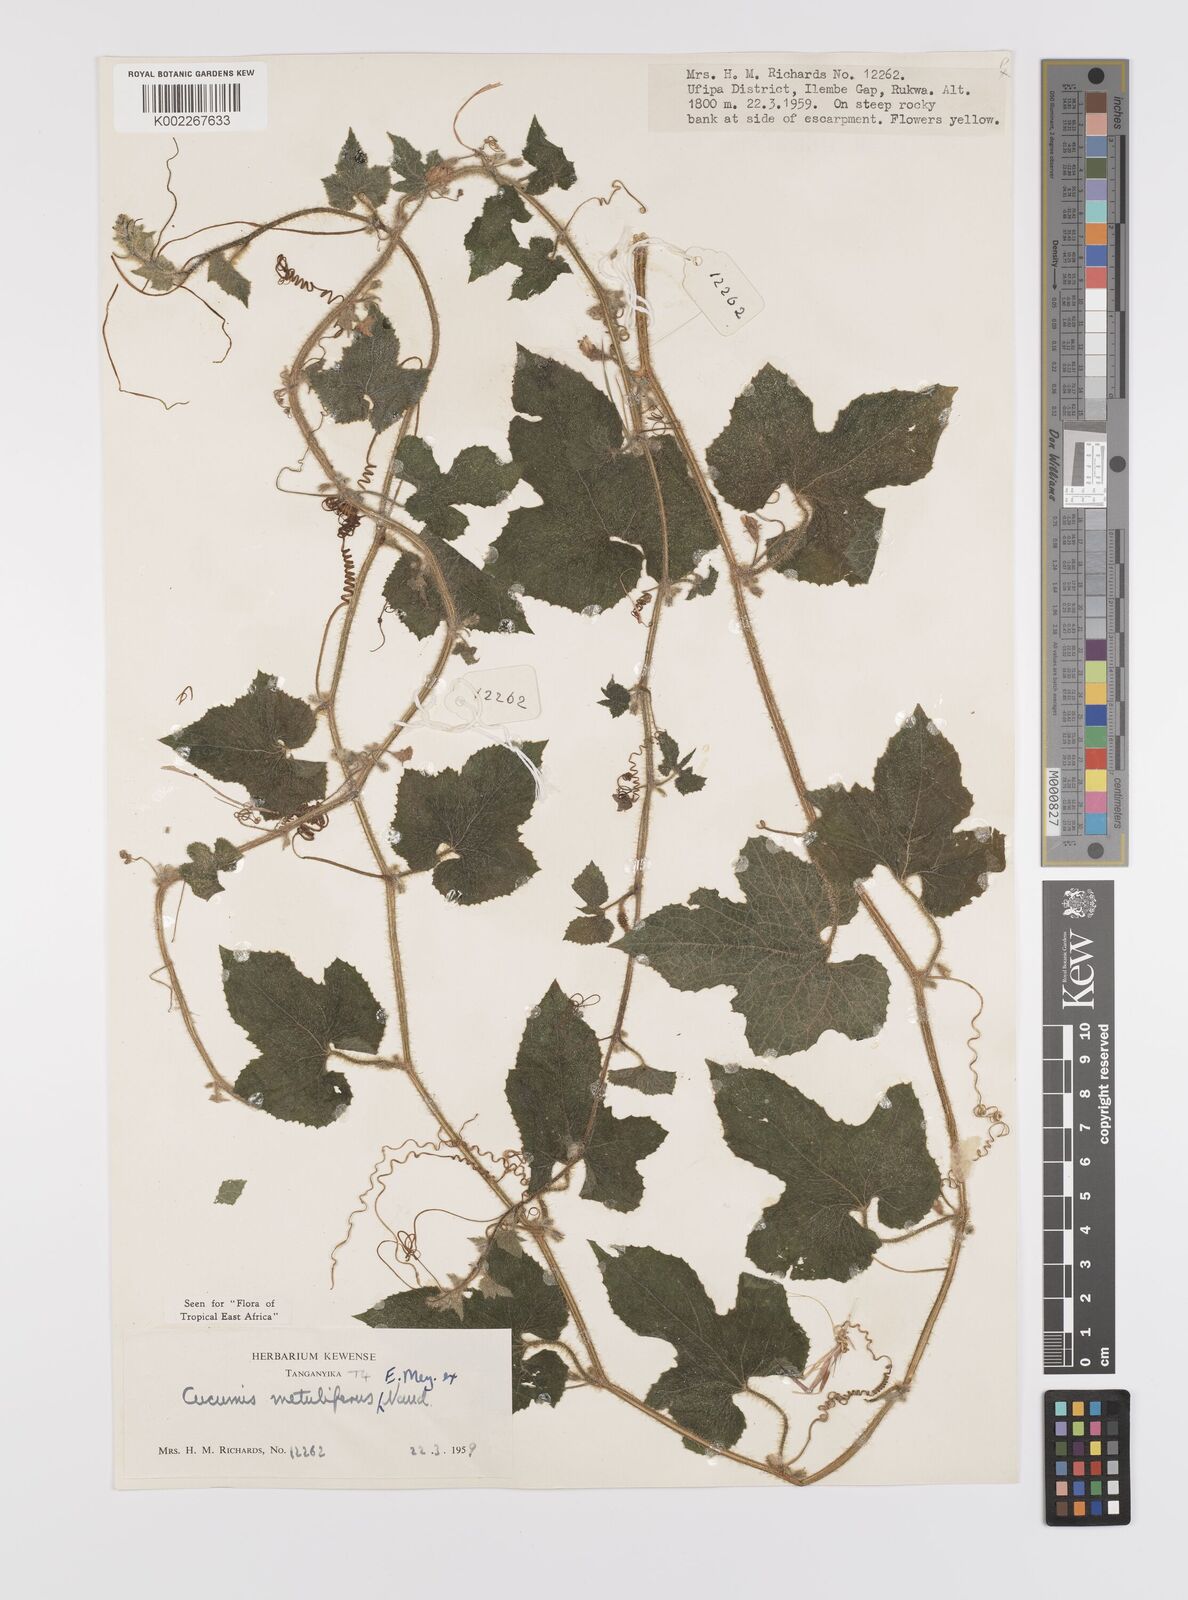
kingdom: Plantae
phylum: Tracheophyta
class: Magnoliopsida
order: Cucurbitales
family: Cucurbitaceae
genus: Cucumis
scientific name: Cucumis metuliferus
